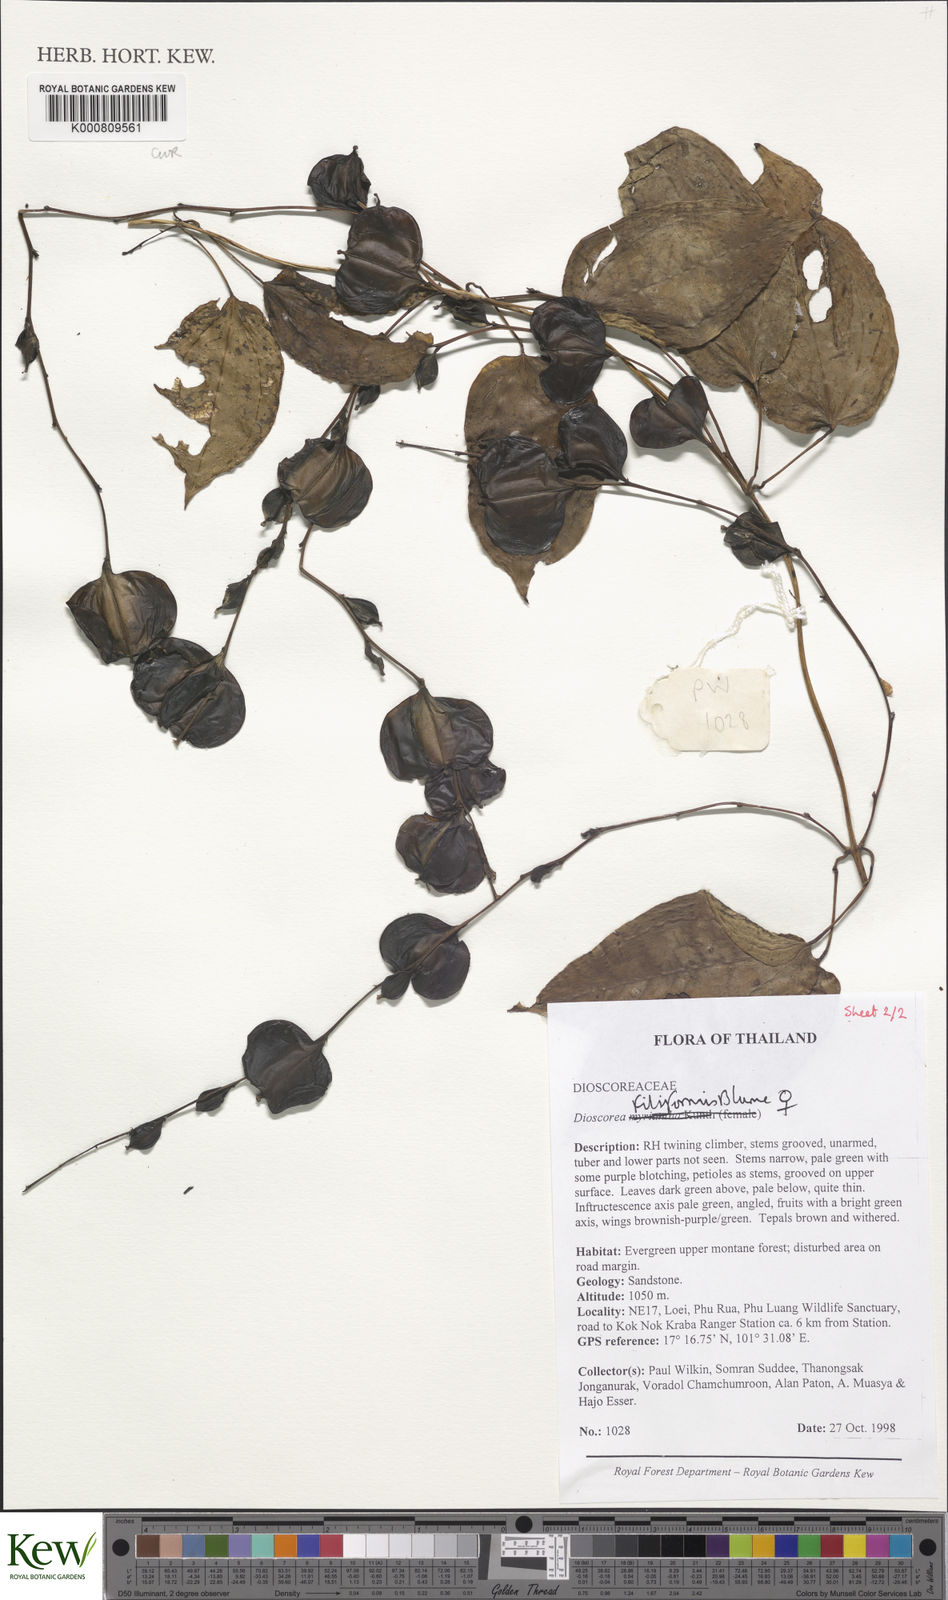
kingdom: Plantae
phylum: Tracheophyta
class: Liliopsida
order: Dioscoreales
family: Dioscoreaceae
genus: Dioscorea
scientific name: Dioscorea filiformis
